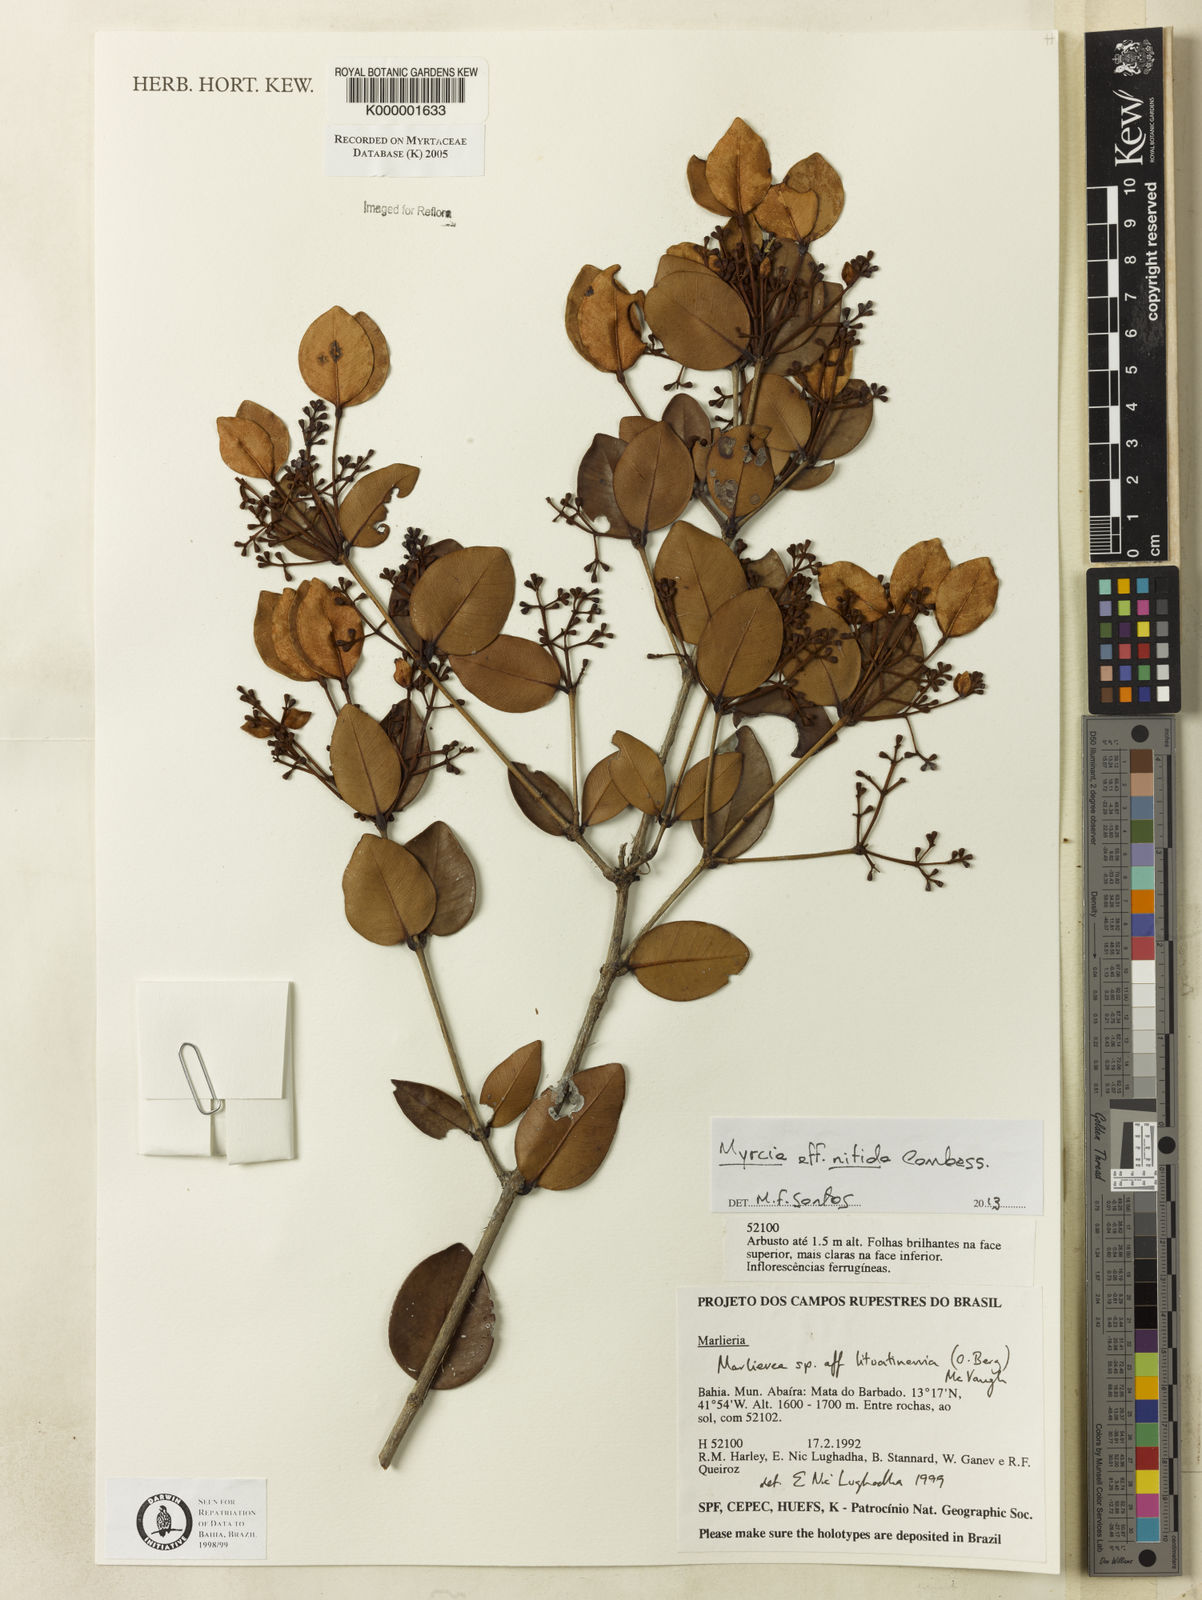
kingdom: Plantae
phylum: Tracheophyta
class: Magnoliopsida
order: Myrtales
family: Myrtaceae
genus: Myrcia
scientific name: Myrcia lituatinervia
